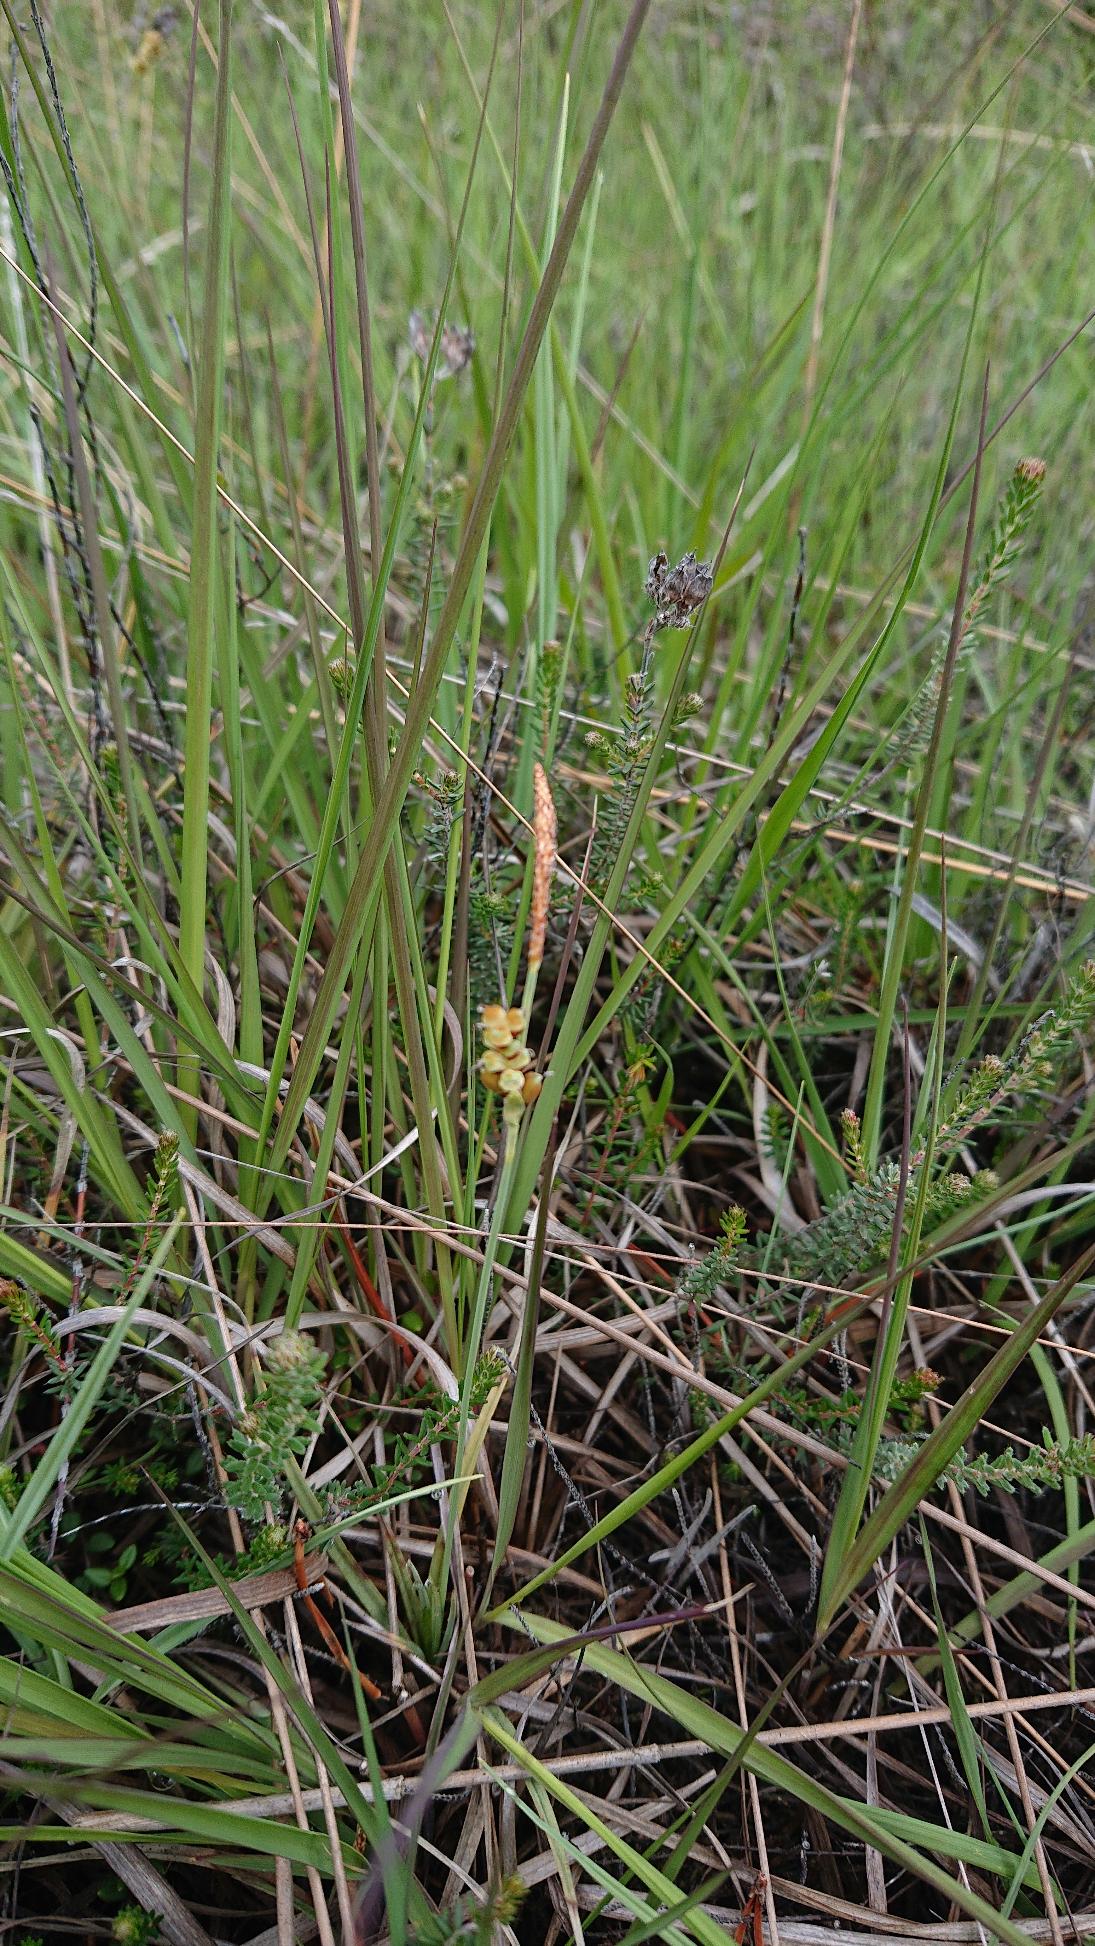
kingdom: Plantae
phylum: Tracheophyta
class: Liliopsida
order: Poales
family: Cyperaceae
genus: Carex
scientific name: Carex panicea
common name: Hirse-star
